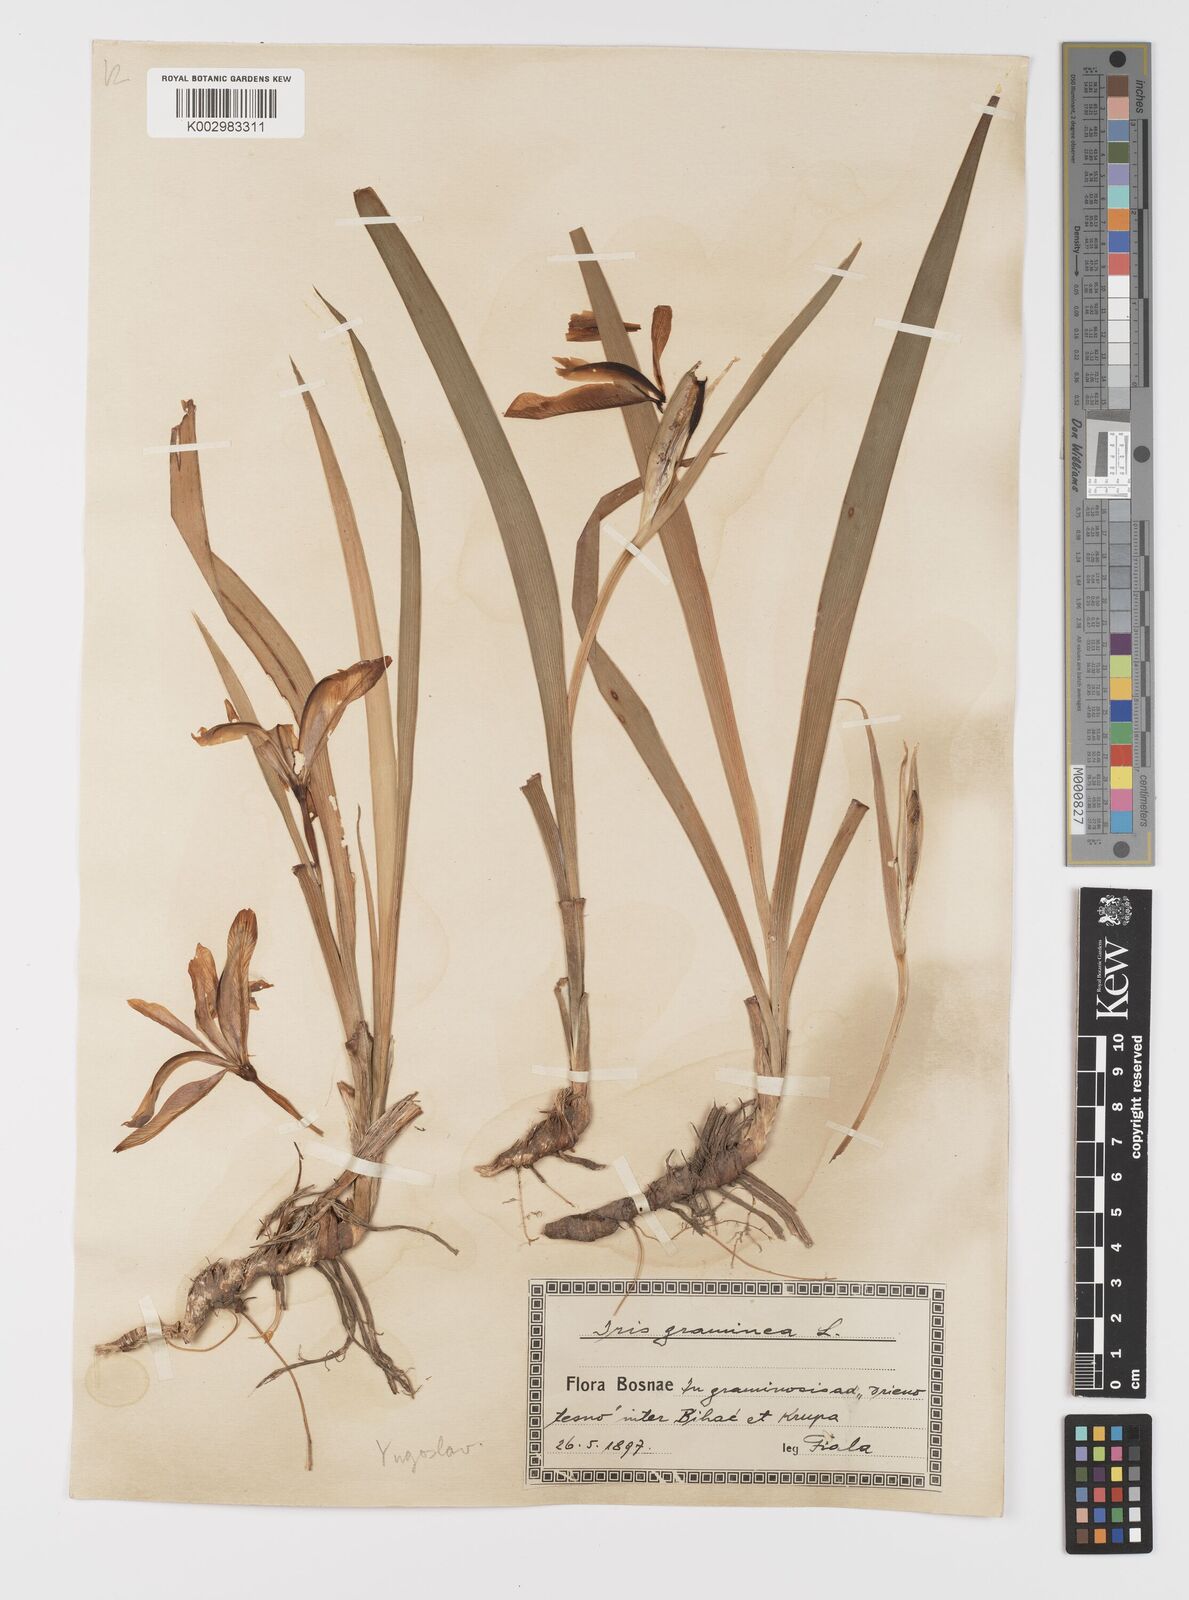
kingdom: Plantae
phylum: Tracheophyta
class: Liliopsida
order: Asparagales
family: Iridaceae
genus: Iris
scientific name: Iris graminea
